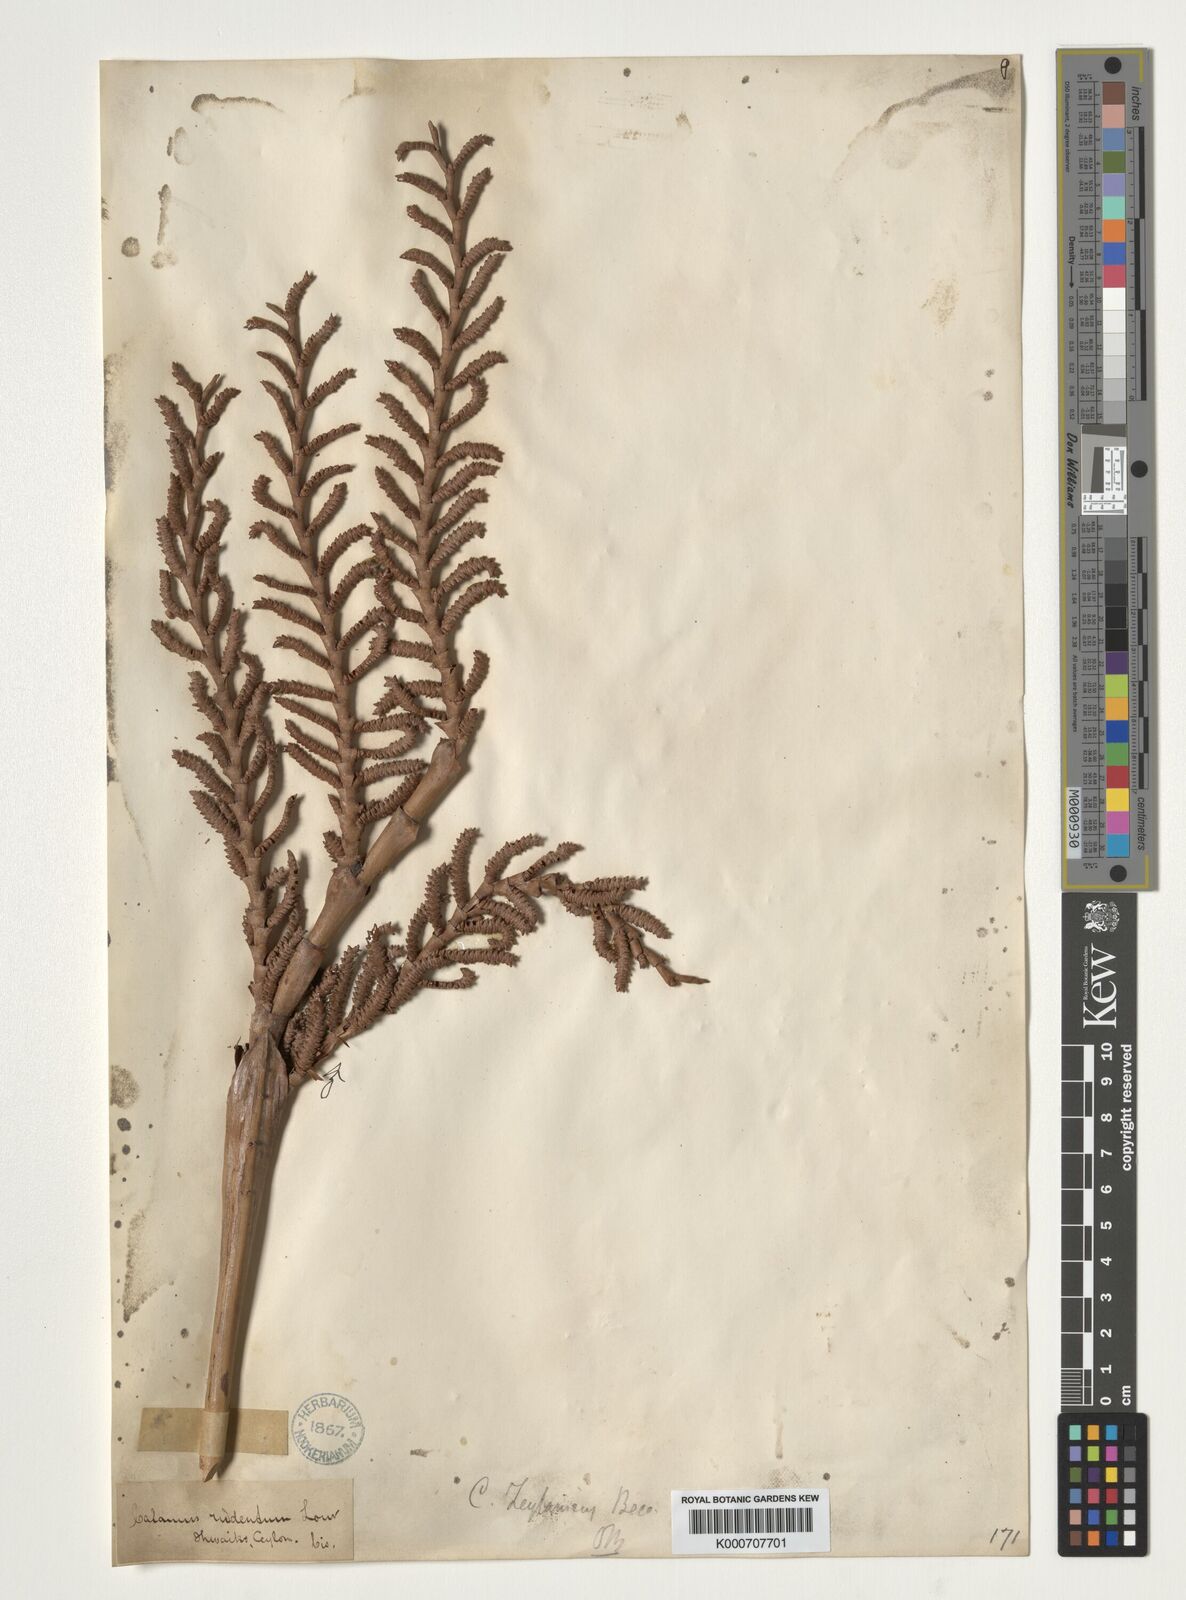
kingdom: Plantae
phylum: Tracheophyta
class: Liliopsida
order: Arecales
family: Arecaceae
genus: Calamus
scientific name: Calamus zeylanicus
